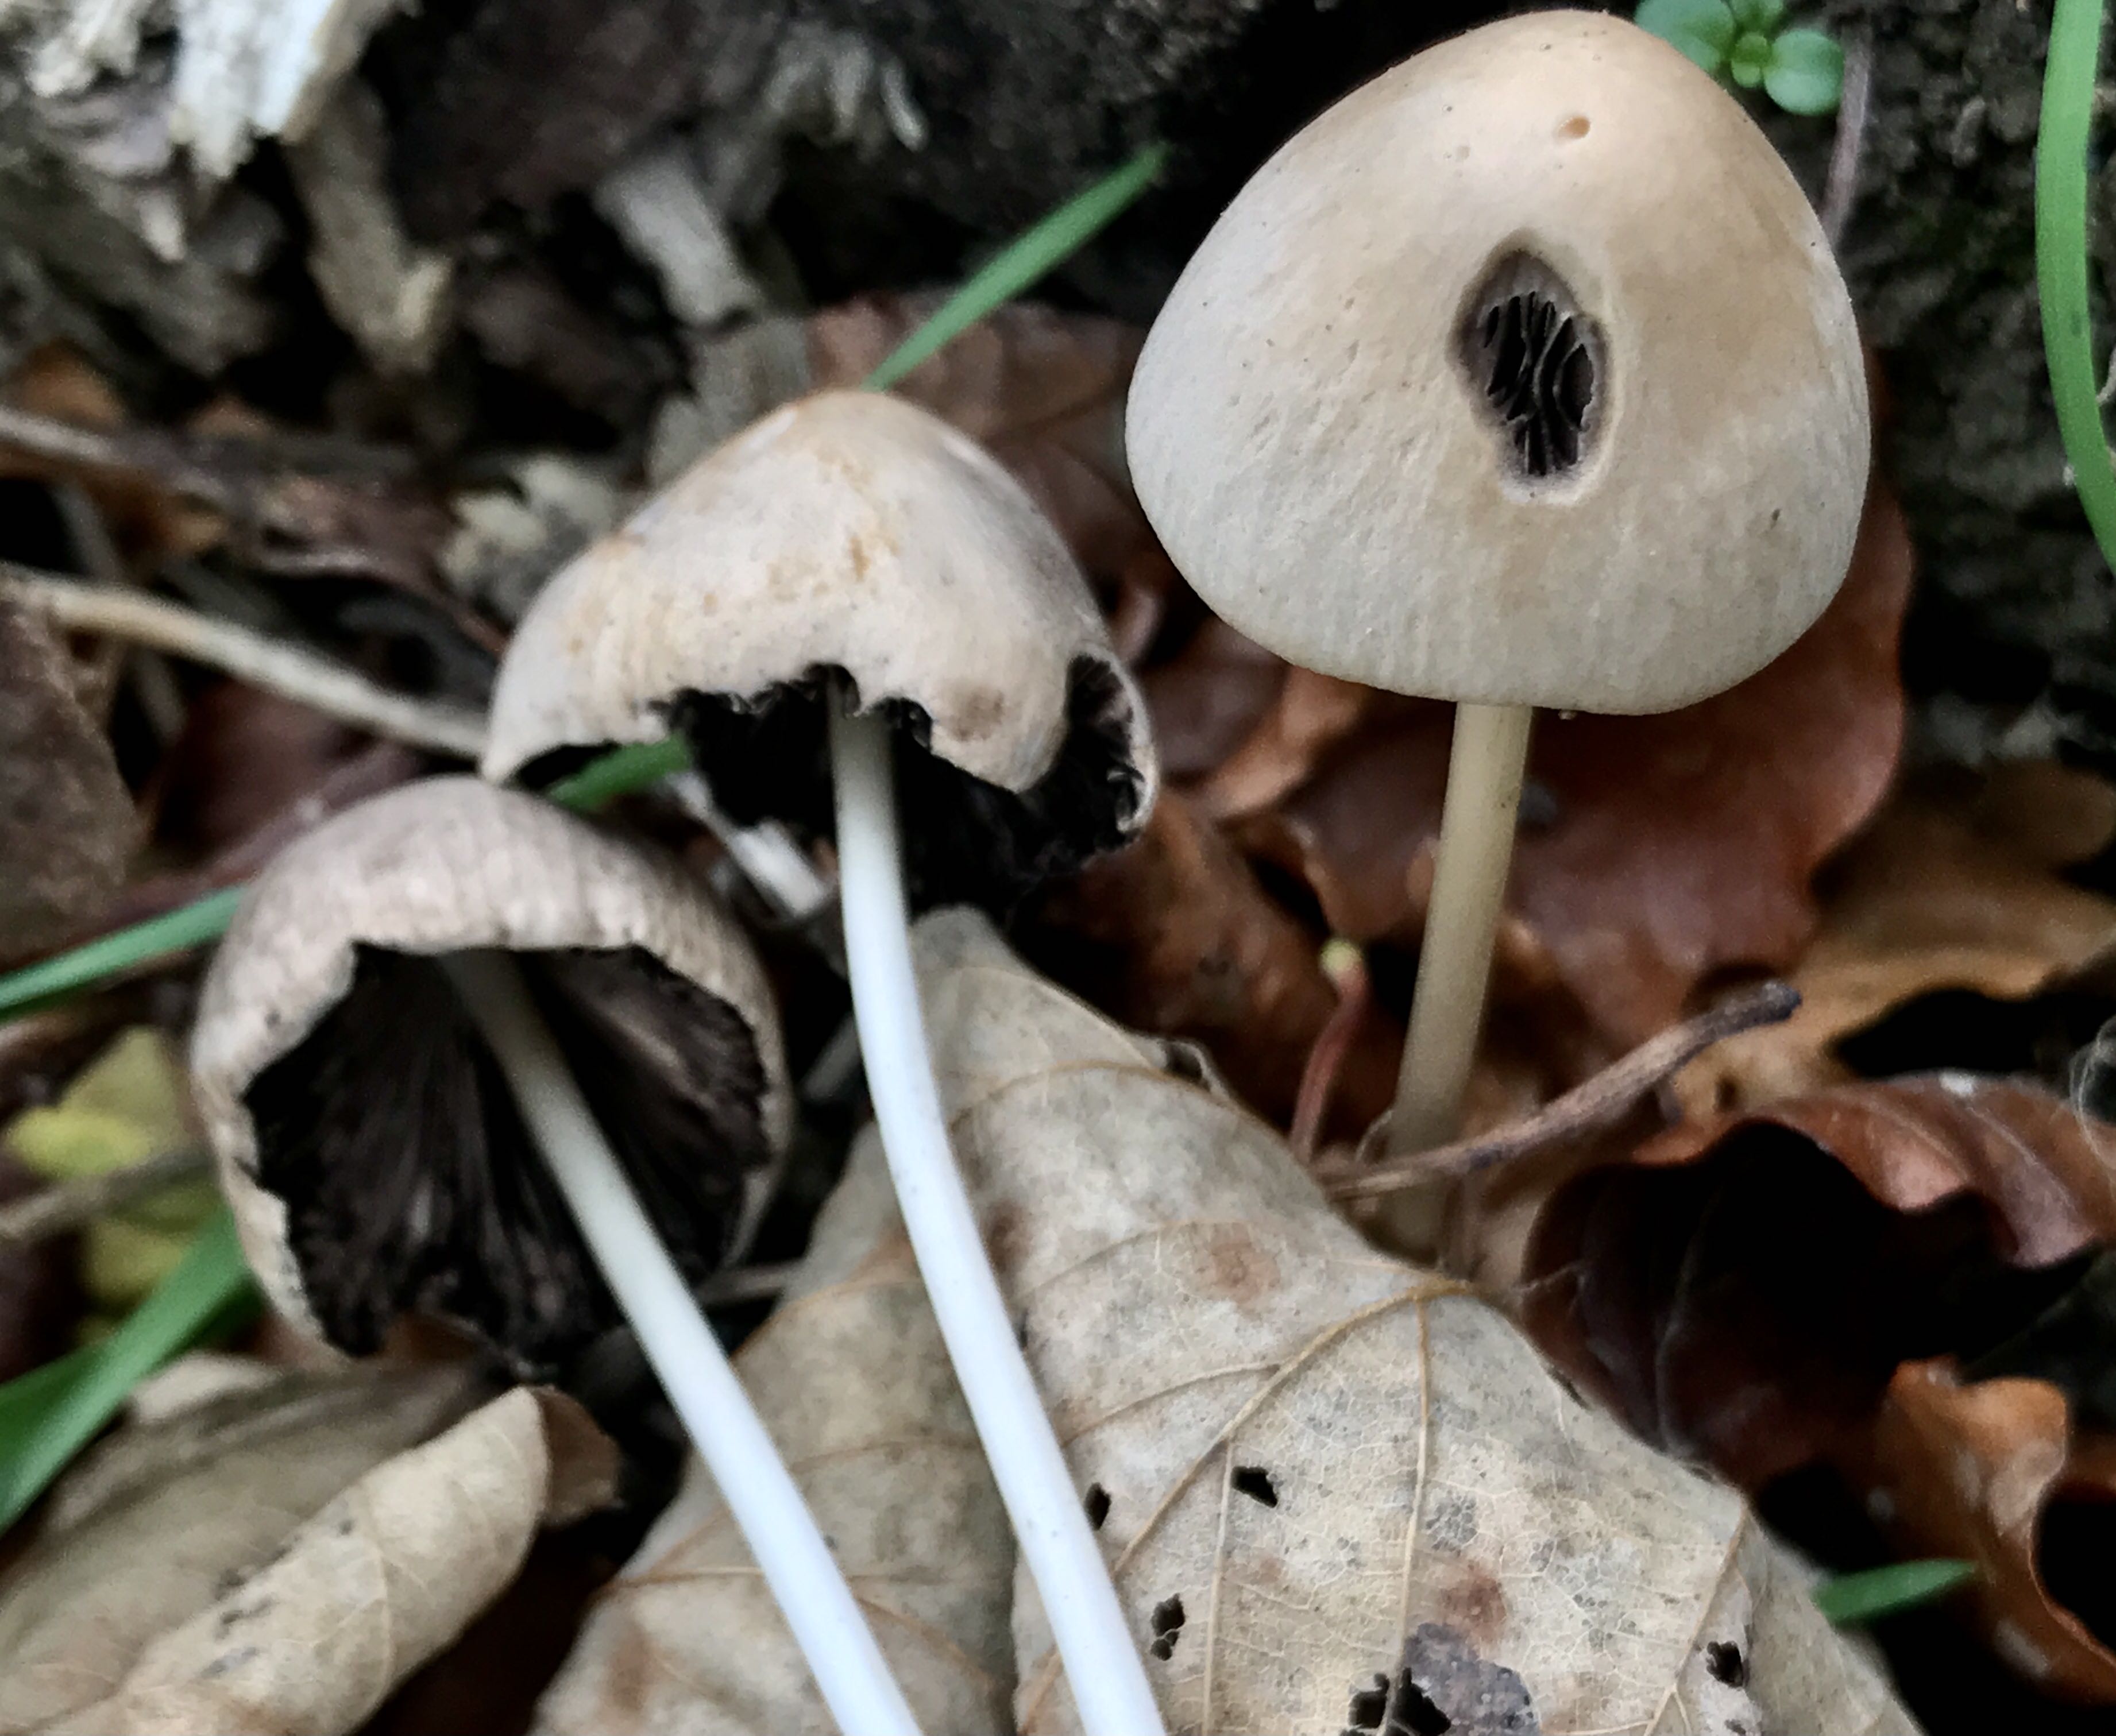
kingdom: Fungi
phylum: Basidiomycota
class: Agaricomycetes
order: Agaricales
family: Psathyrellaceae
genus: Parasola
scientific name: Parasola conopilea
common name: kegle-hjulhat
